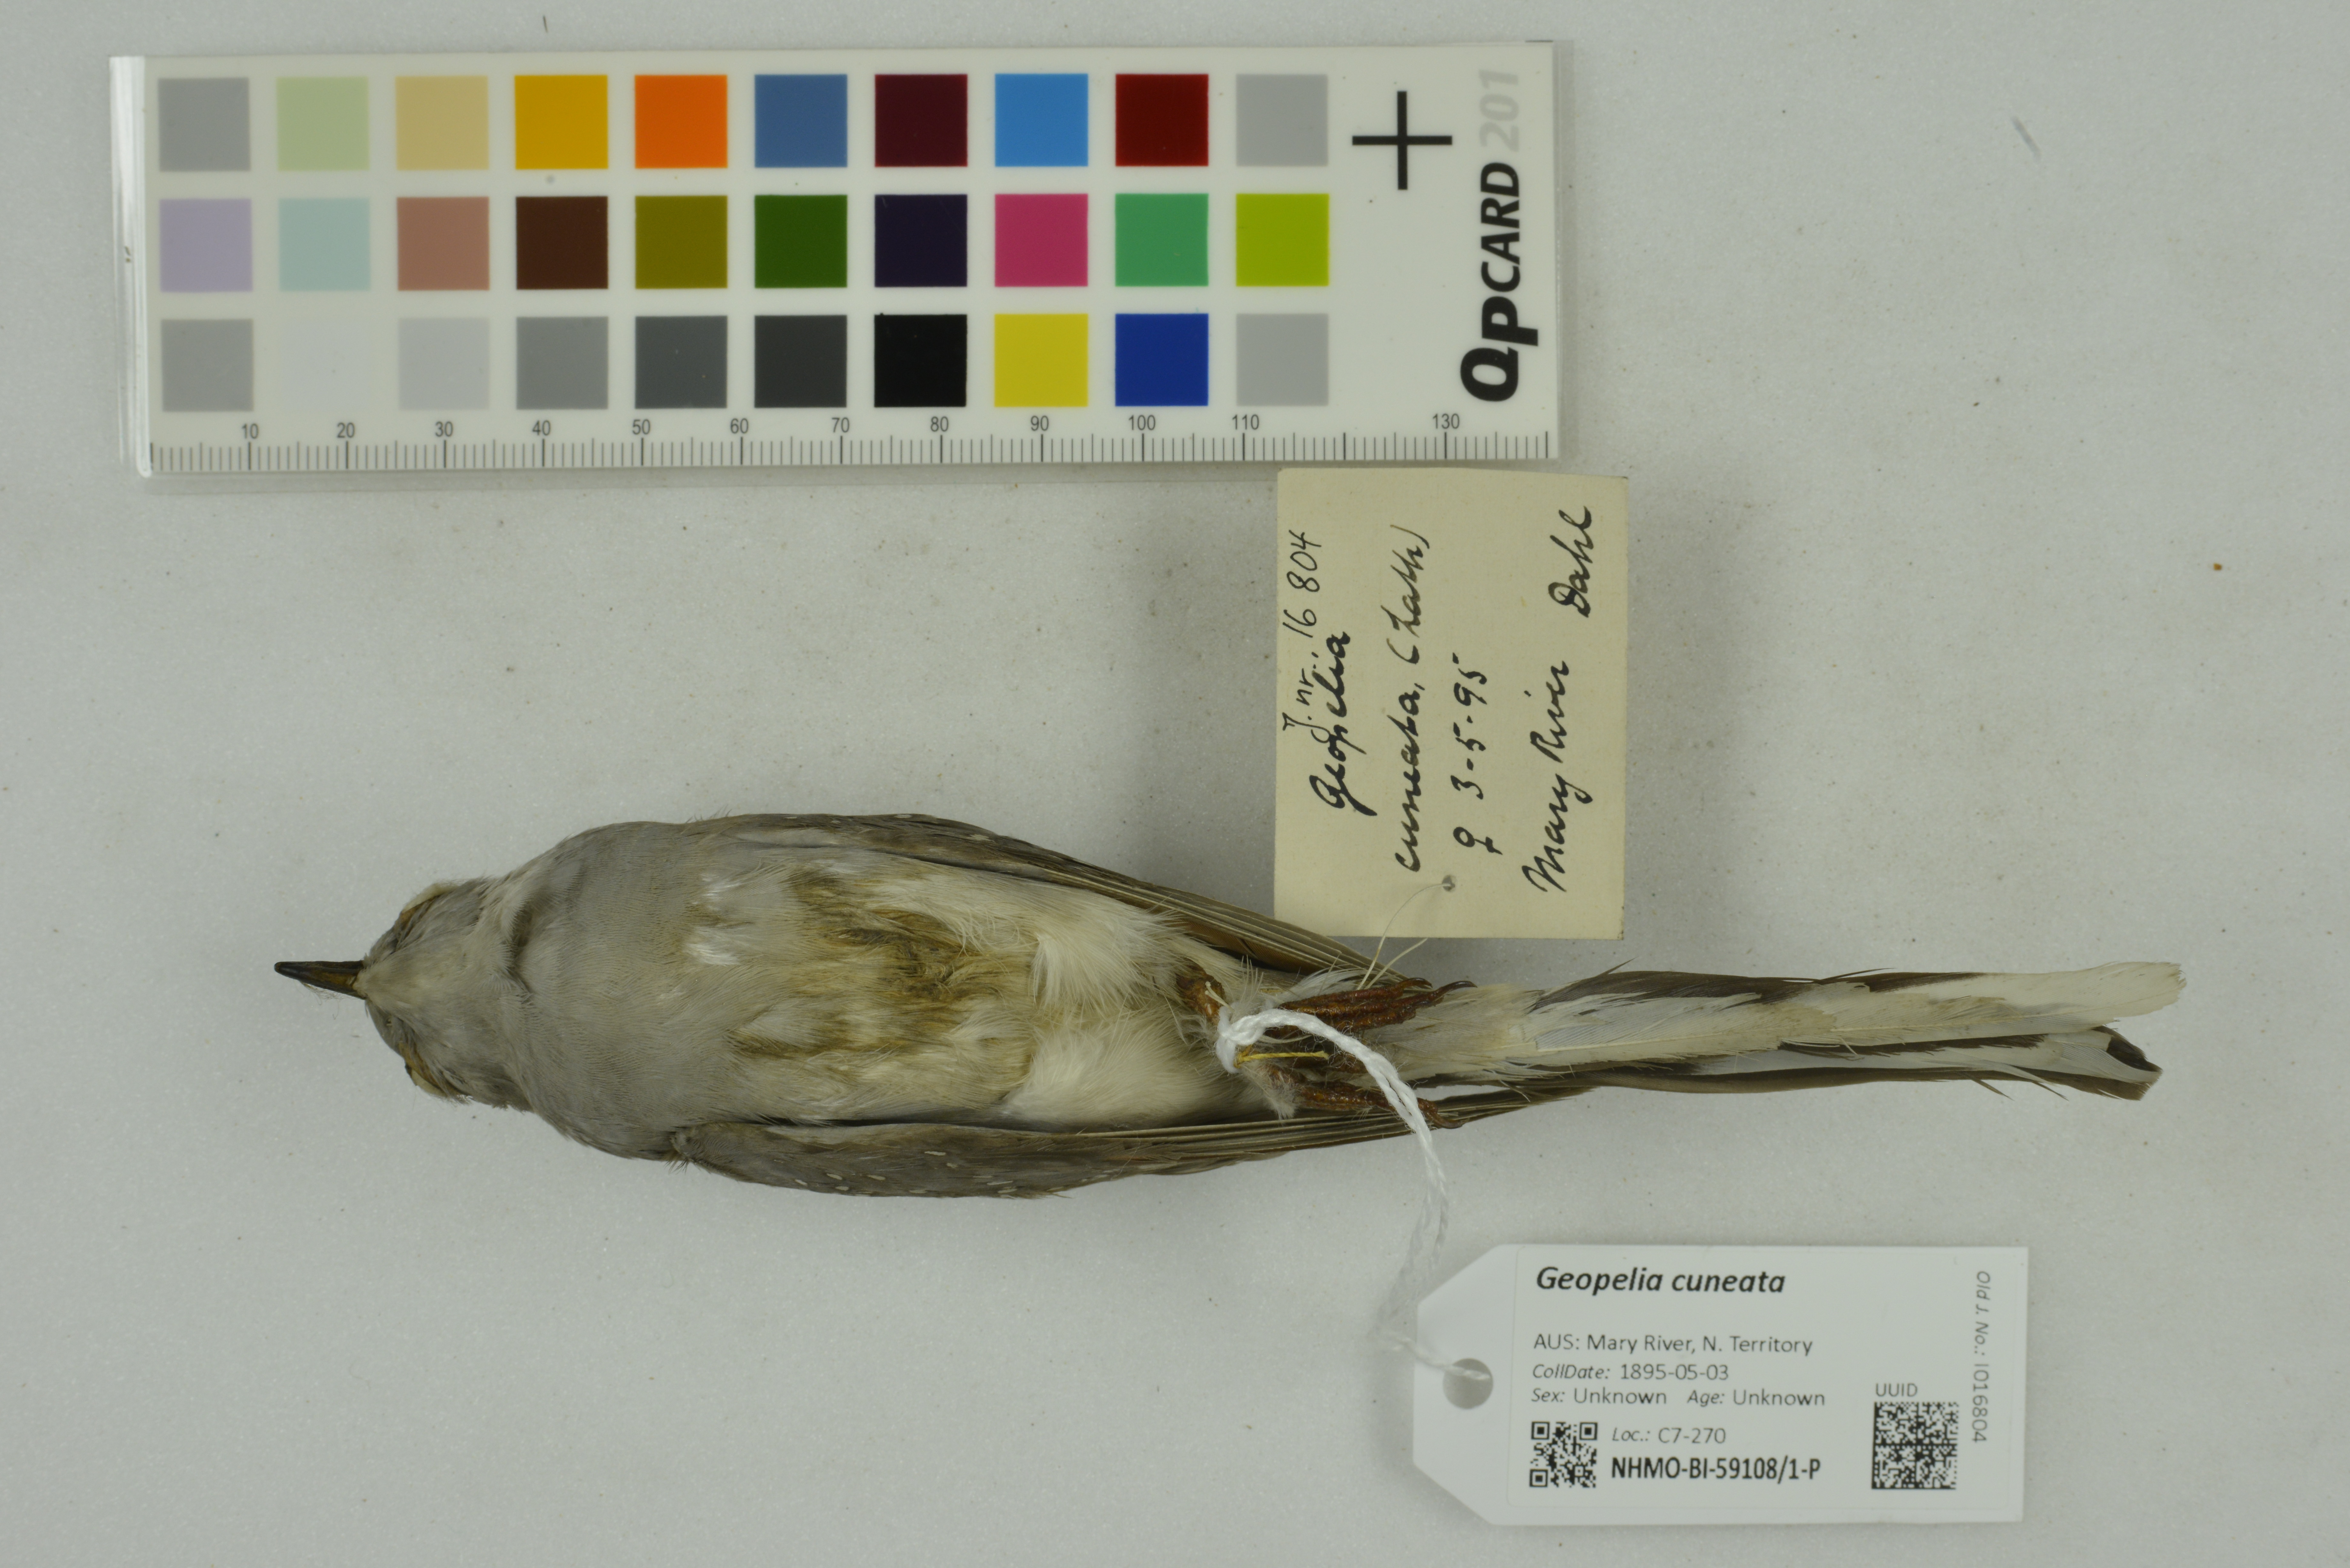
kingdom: Animalia
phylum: Chordata
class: Aves
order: Columbiformes
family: Columbidae
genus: Geopelia
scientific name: Geopelia cuneata
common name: Diamond dove
